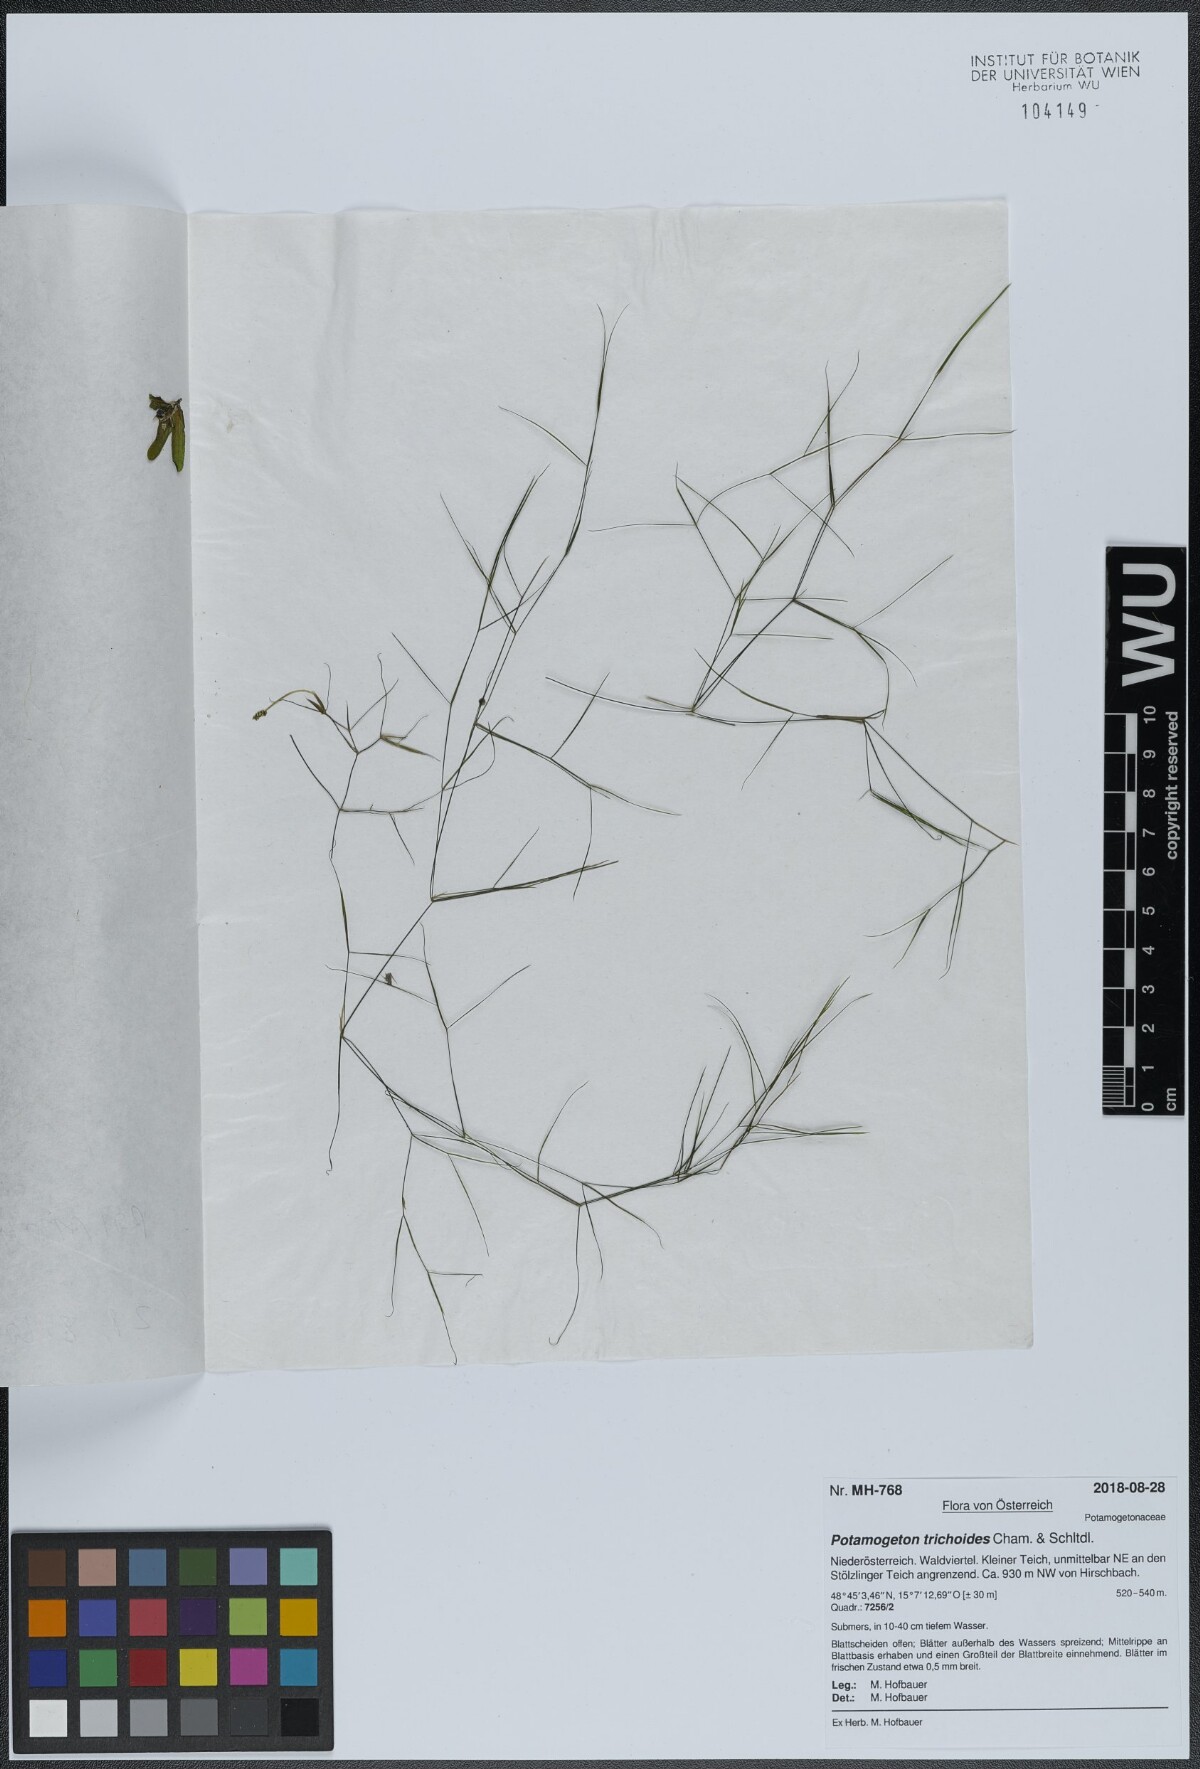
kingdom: Plantae
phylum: Tracheophyta
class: Liliopsida
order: Alismatales
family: Potamogetonaceae
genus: Potamogeton
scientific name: Potamogeton trichoides
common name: Hairlike pondweed
